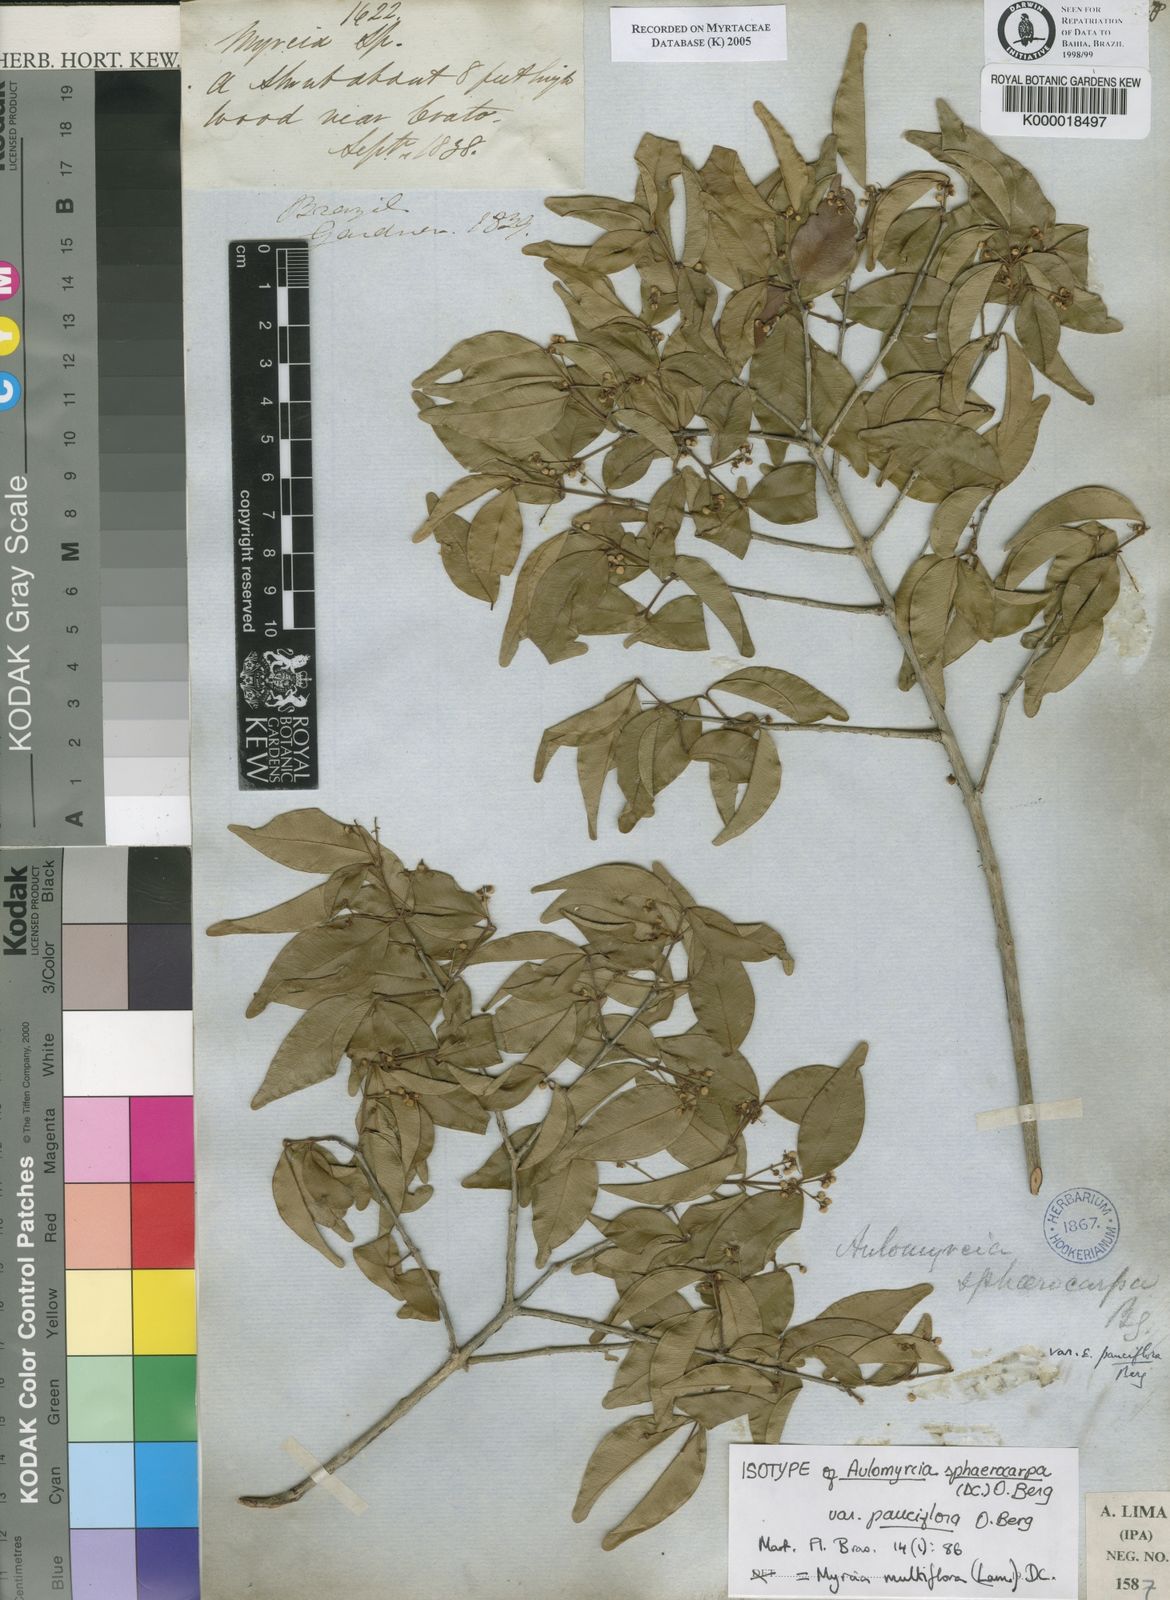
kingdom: Plantae
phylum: Tracheophyta
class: Magnoliopsida
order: Myrtales
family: Myrtaceae
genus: Myrcia
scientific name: Myrcia multiflora
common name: Pedra hume
